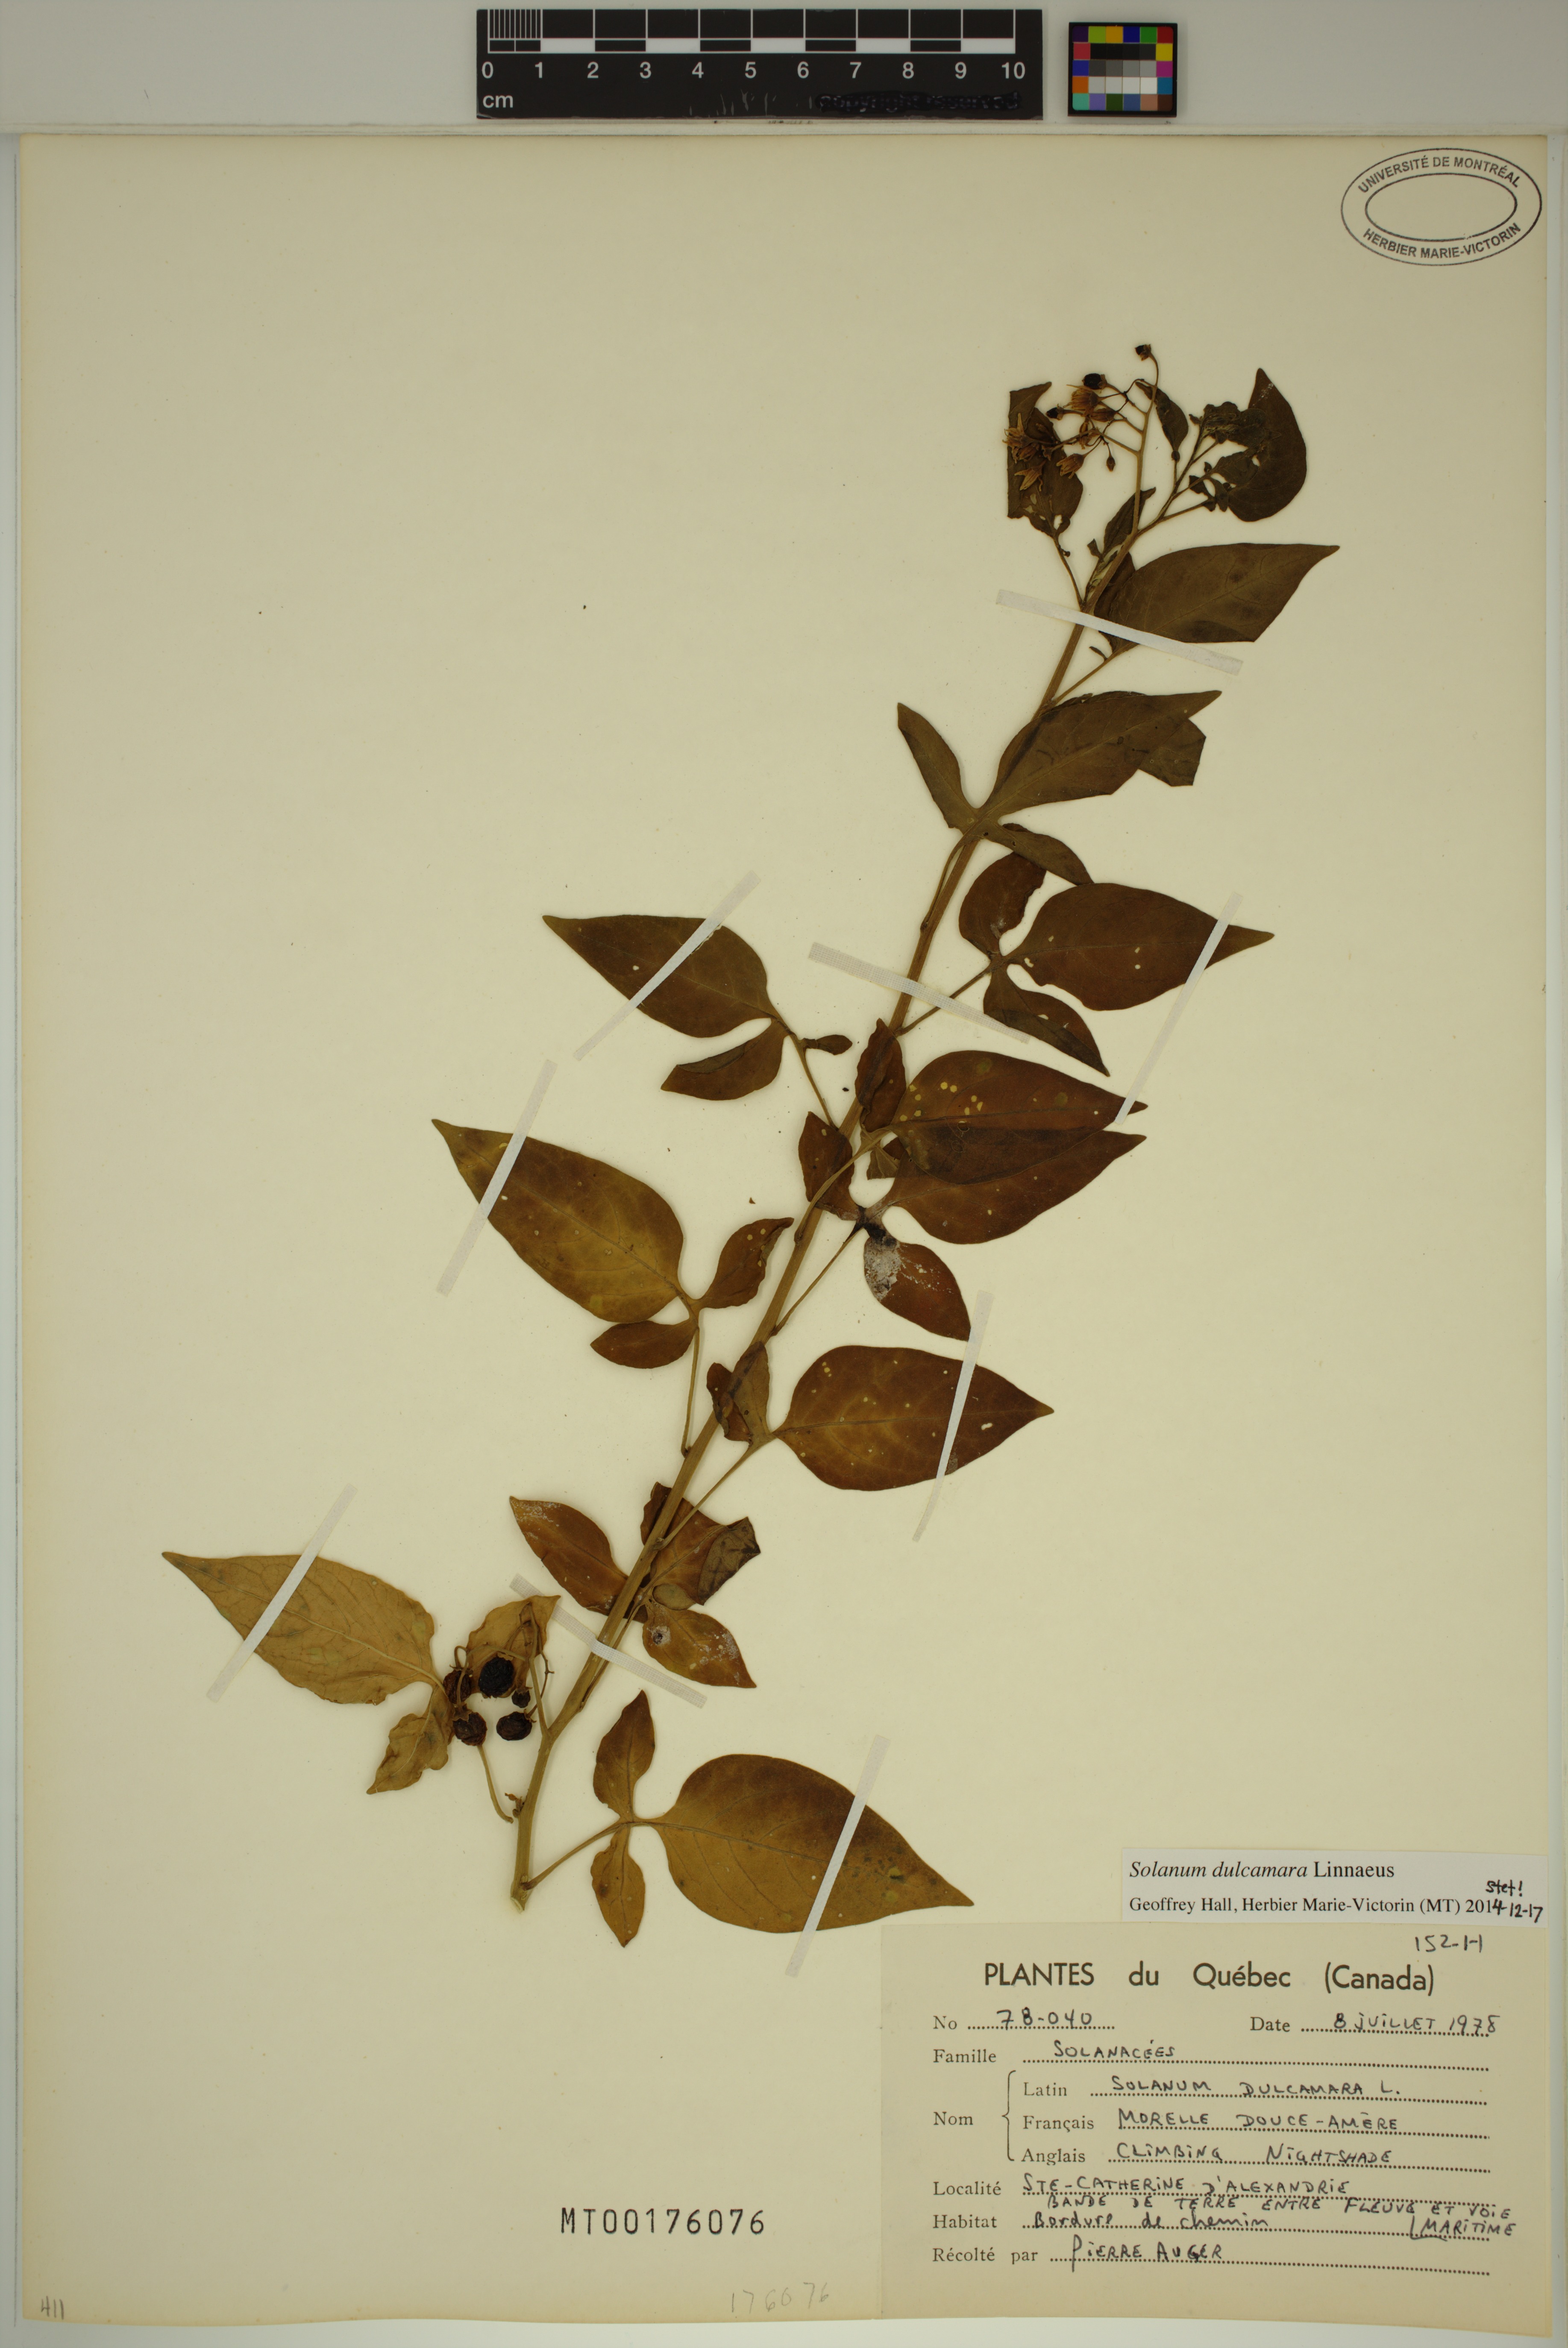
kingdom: Plantae
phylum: Tracheophyta
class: Magnoliopsida
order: Solanales
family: Solanaceae
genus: Solanum
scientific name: Solanum dulcamara
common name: Climbing nightshade
